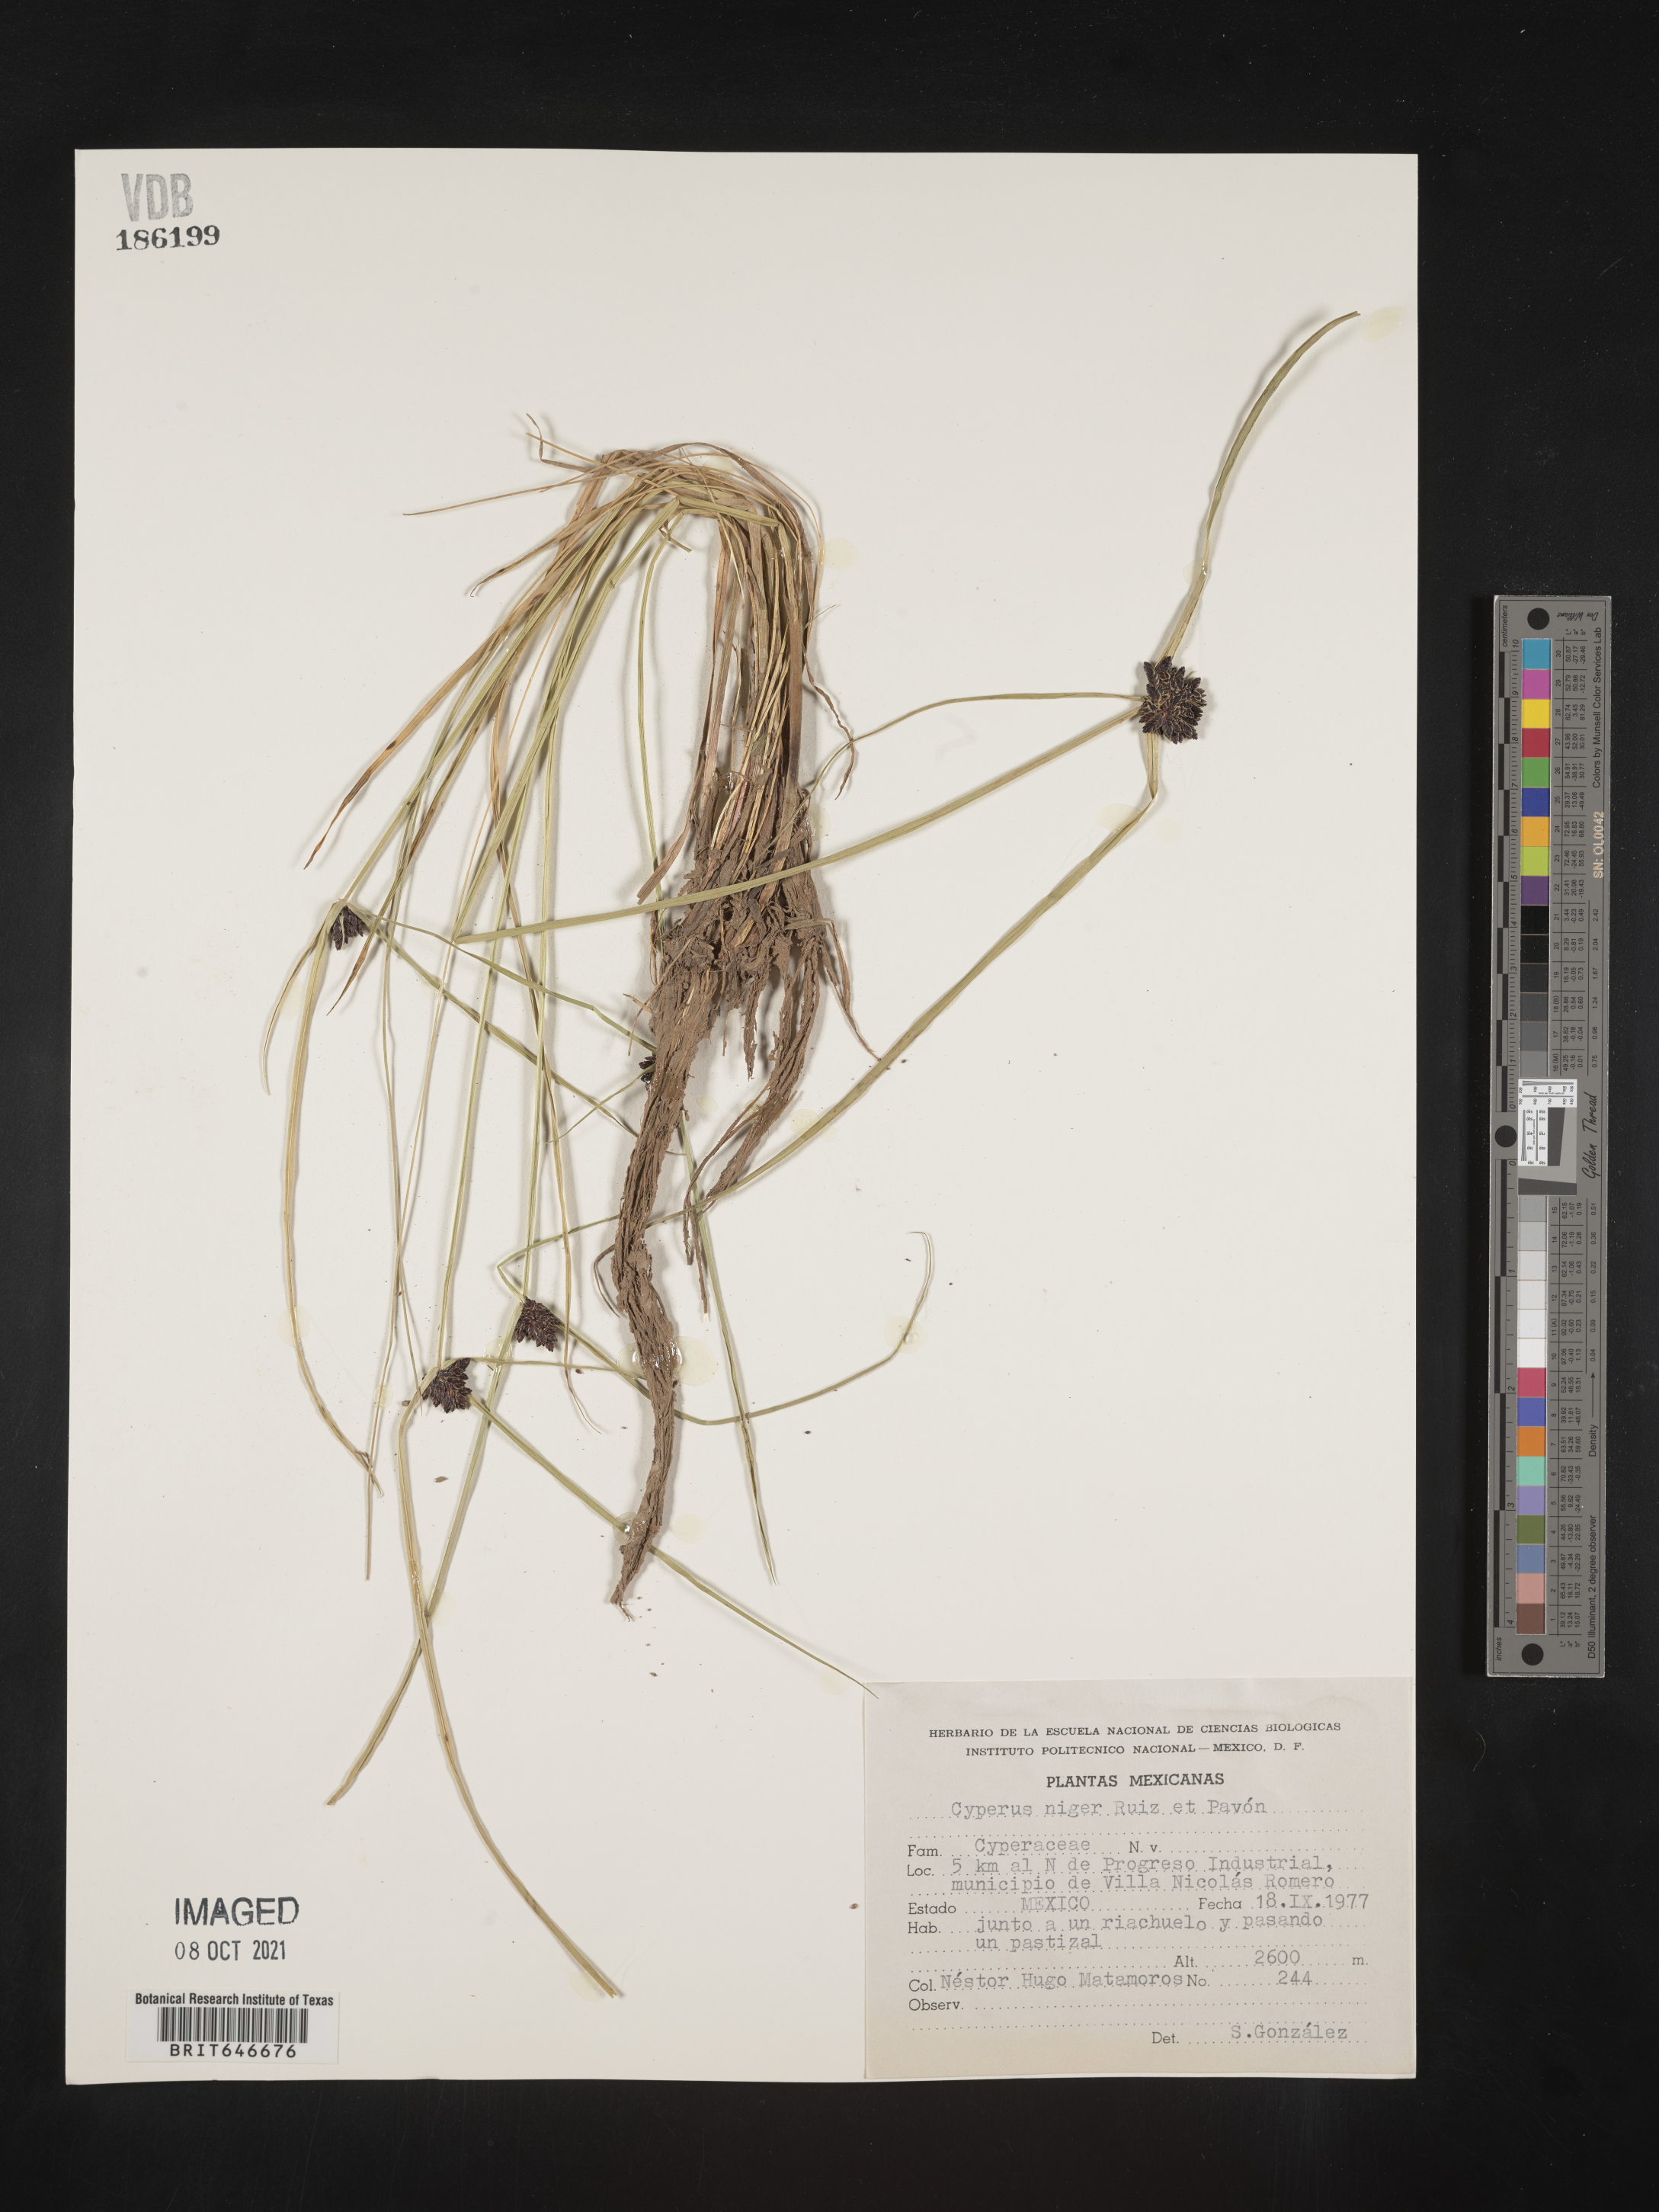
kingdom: Plantae
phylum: Tracheophyta
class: Liliopsida
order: Poales
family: Cyperaceae
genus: Cyperus
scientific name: Cyperus
